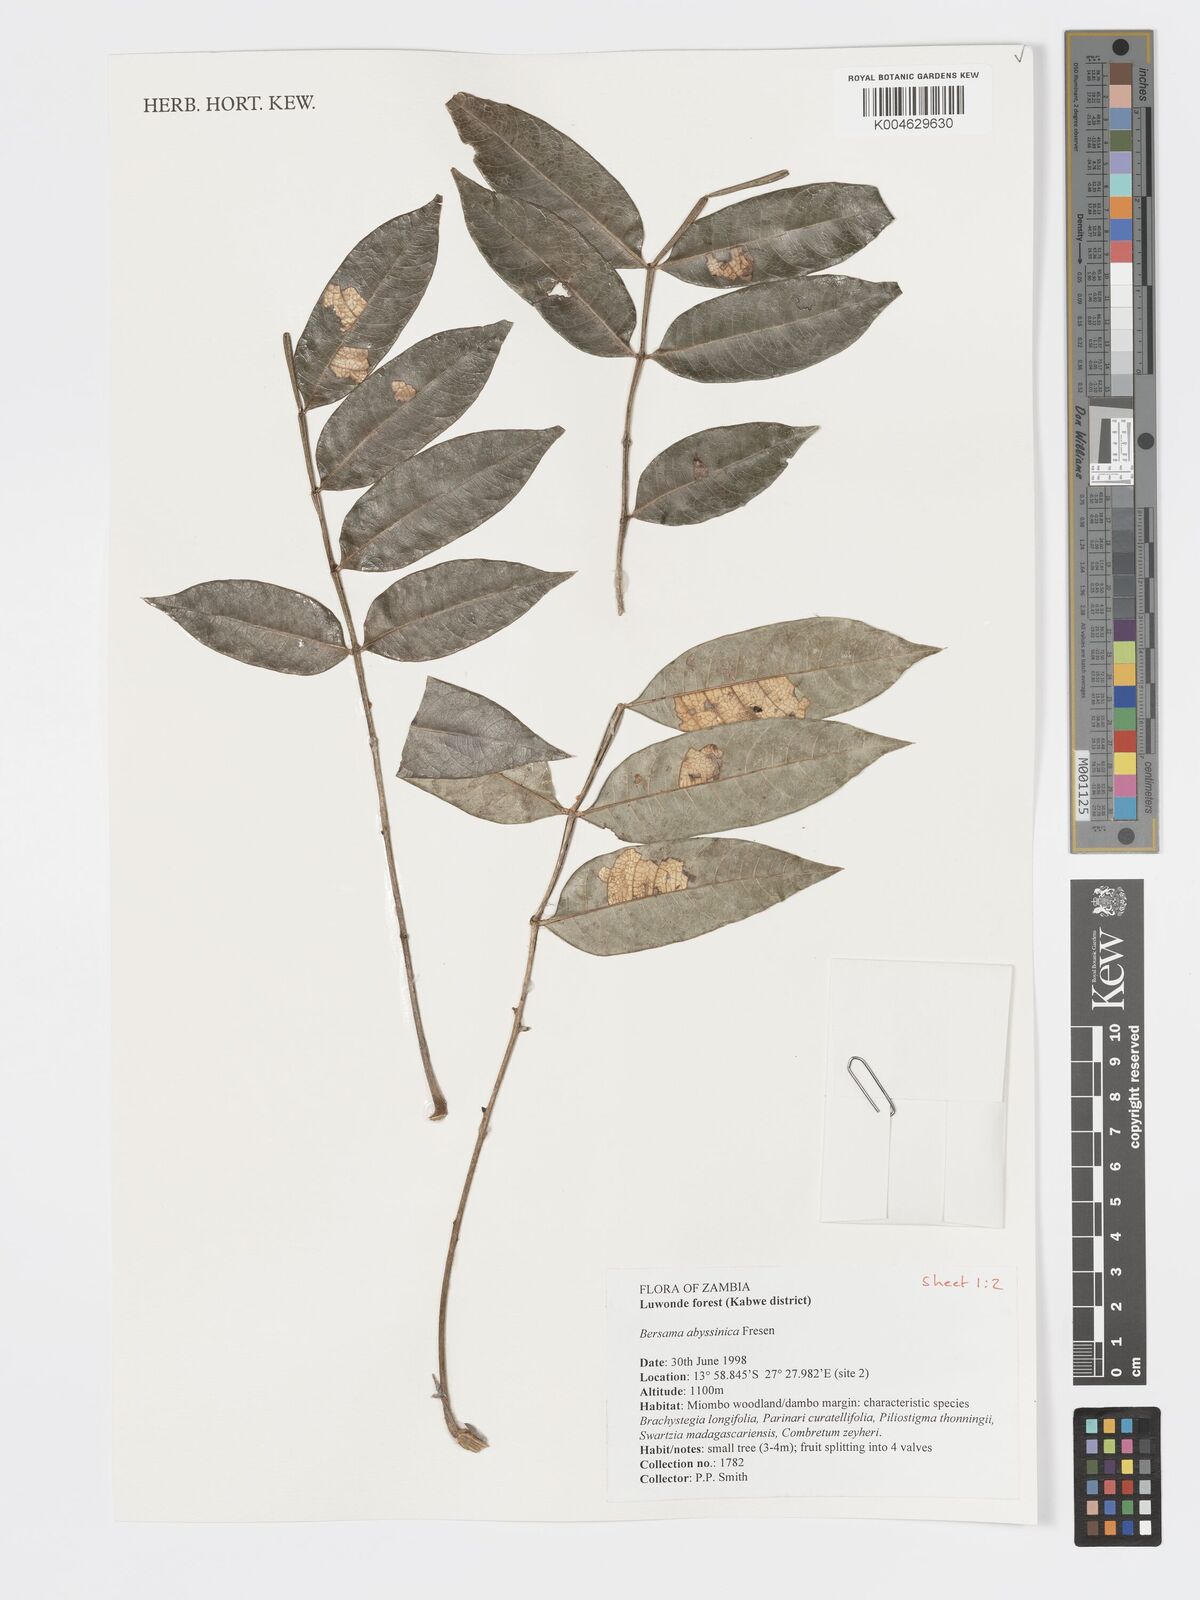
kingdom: Plantae
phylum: Tracheophyta
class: Magnoliopsida
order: Geraniales
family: Melianthaceae
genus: Bersama
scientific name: Bersama abyssinica
